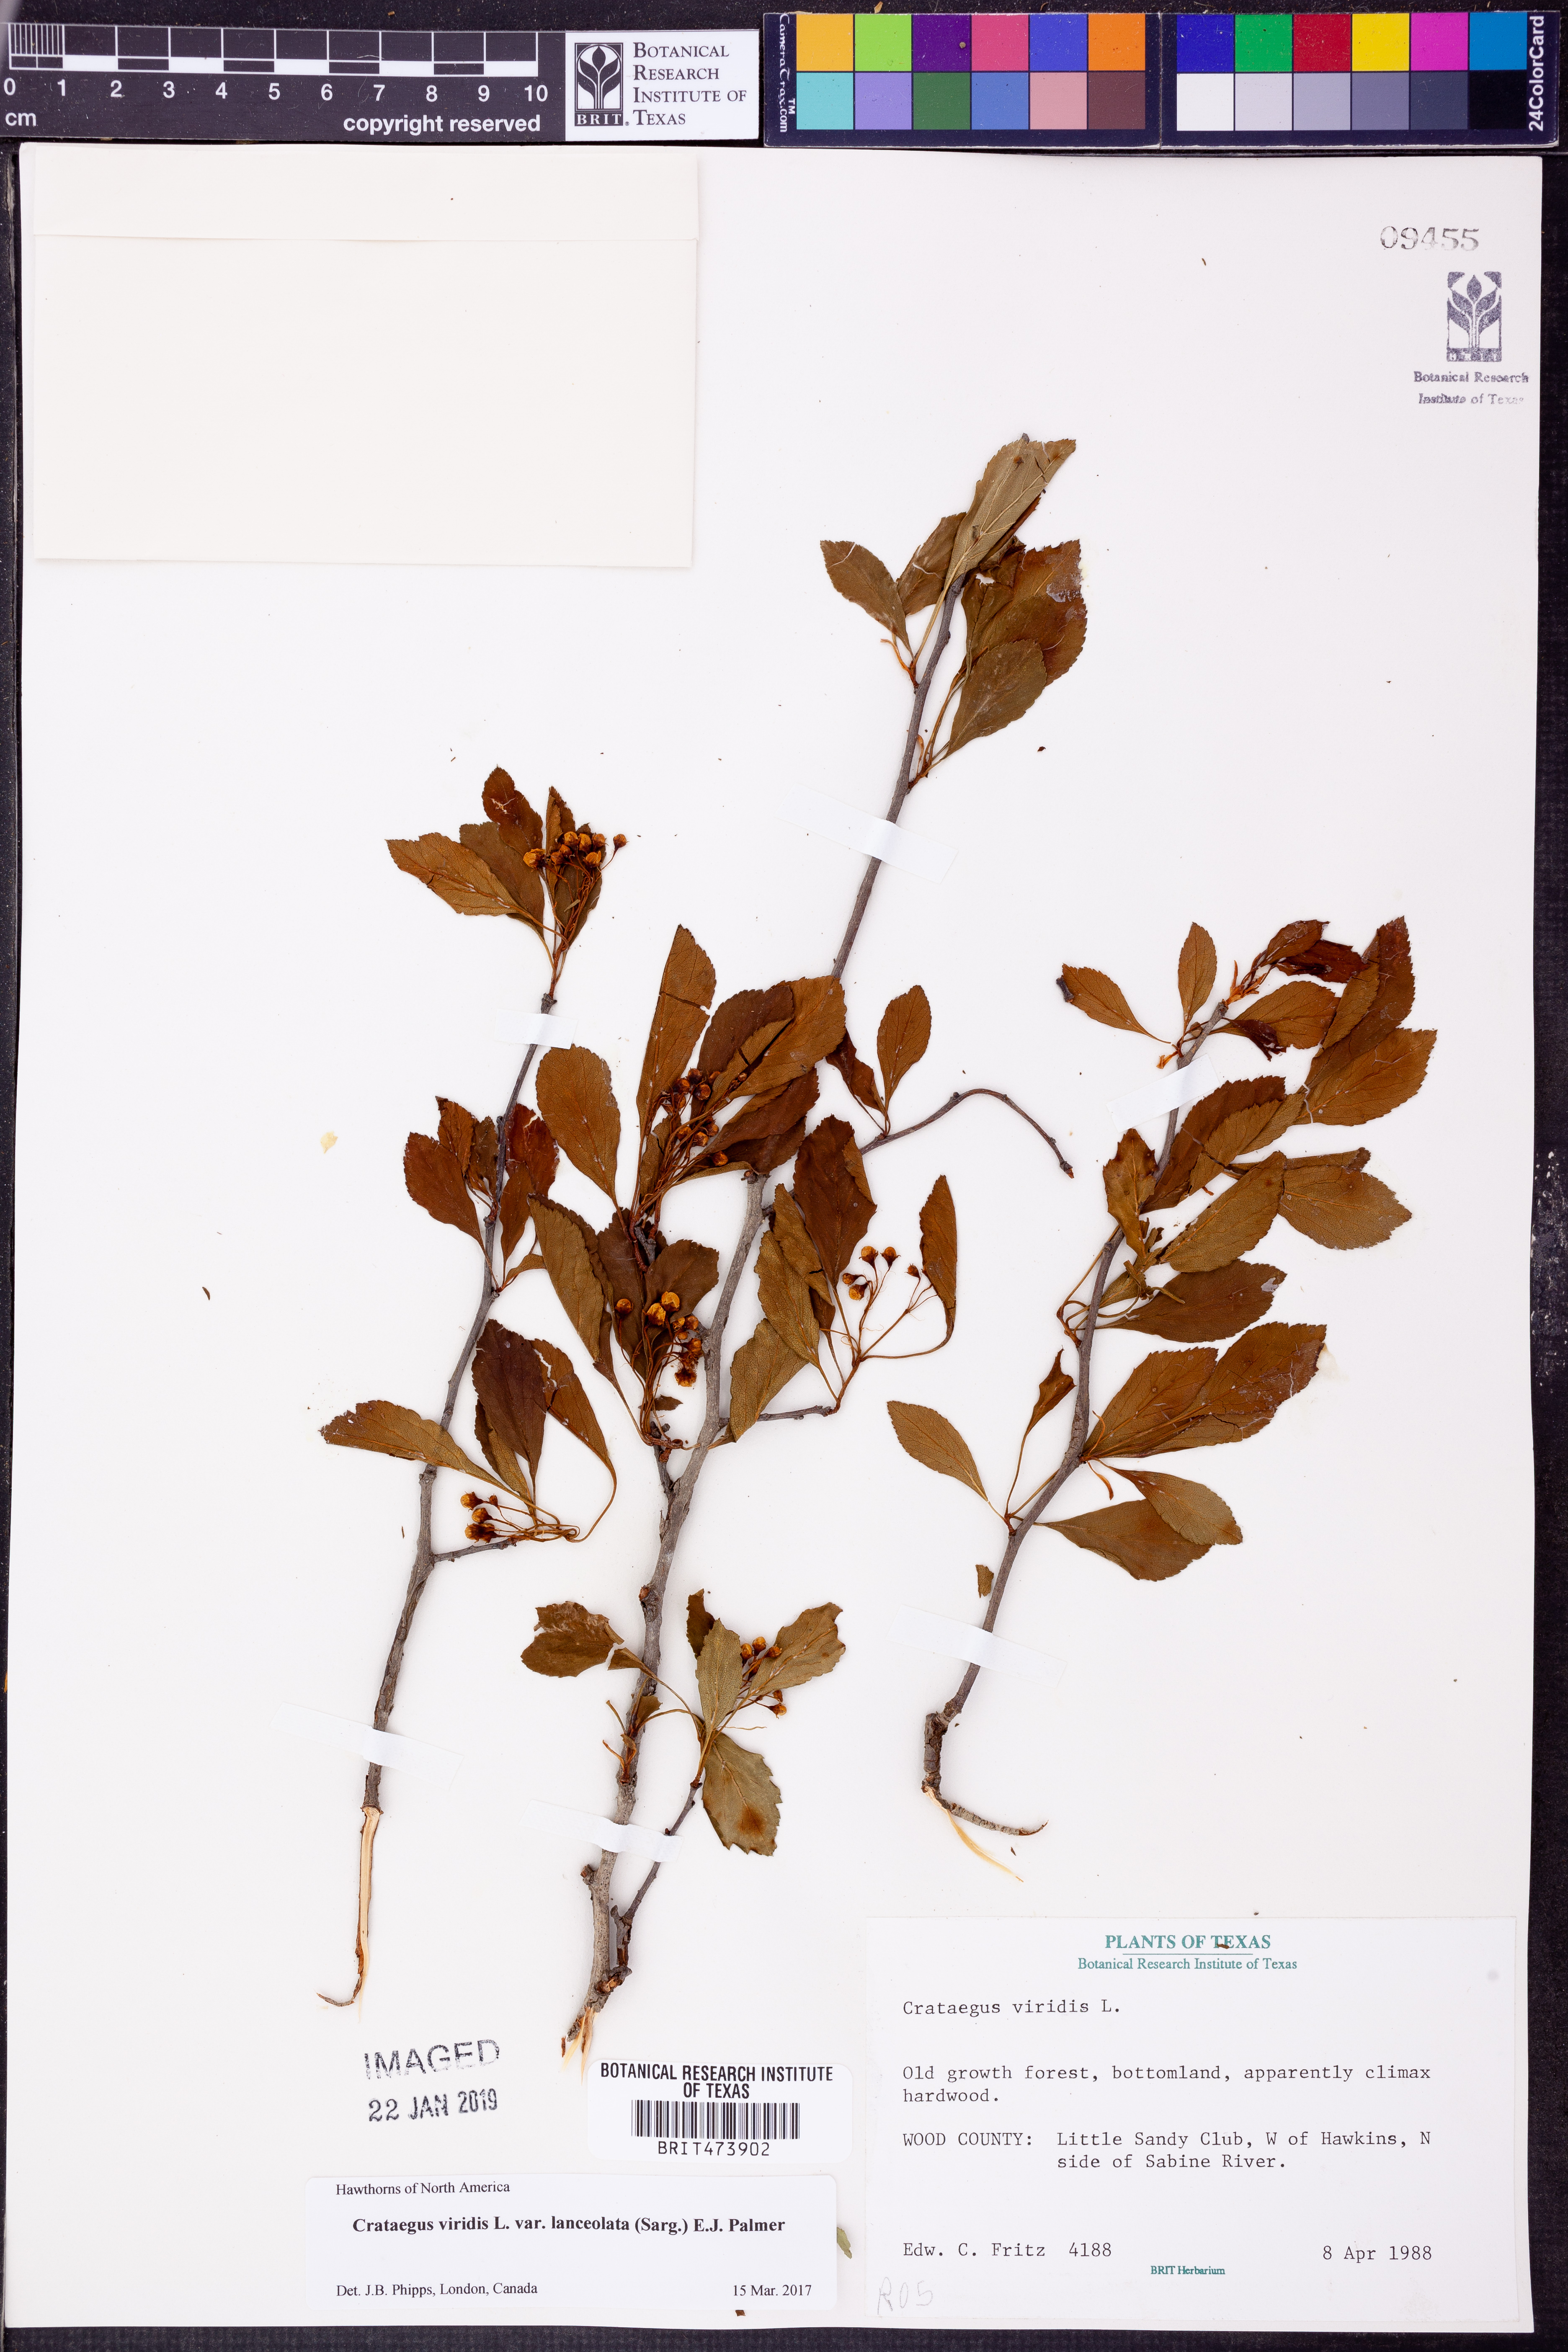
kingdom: Plantae
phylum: Tracheophyta
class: Magnoliopsida
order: Rosales
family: Rosaceae
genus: Crataegus
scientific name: Crataegus viridis
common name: Southernthorn
